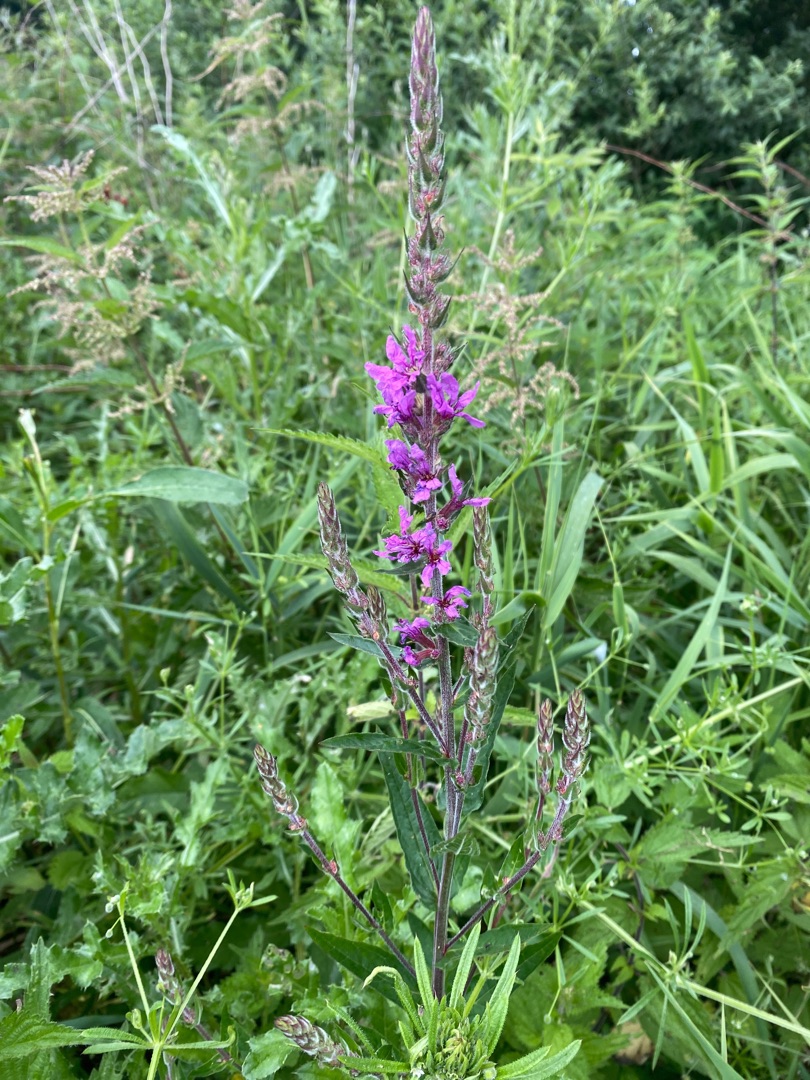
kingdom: Plantae
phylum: Tracheophyta
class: Magnoliopsida
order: Myrtales
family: Lythraceae
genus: Lythrum
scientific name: Lythrum salicaria
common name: Kattehale
